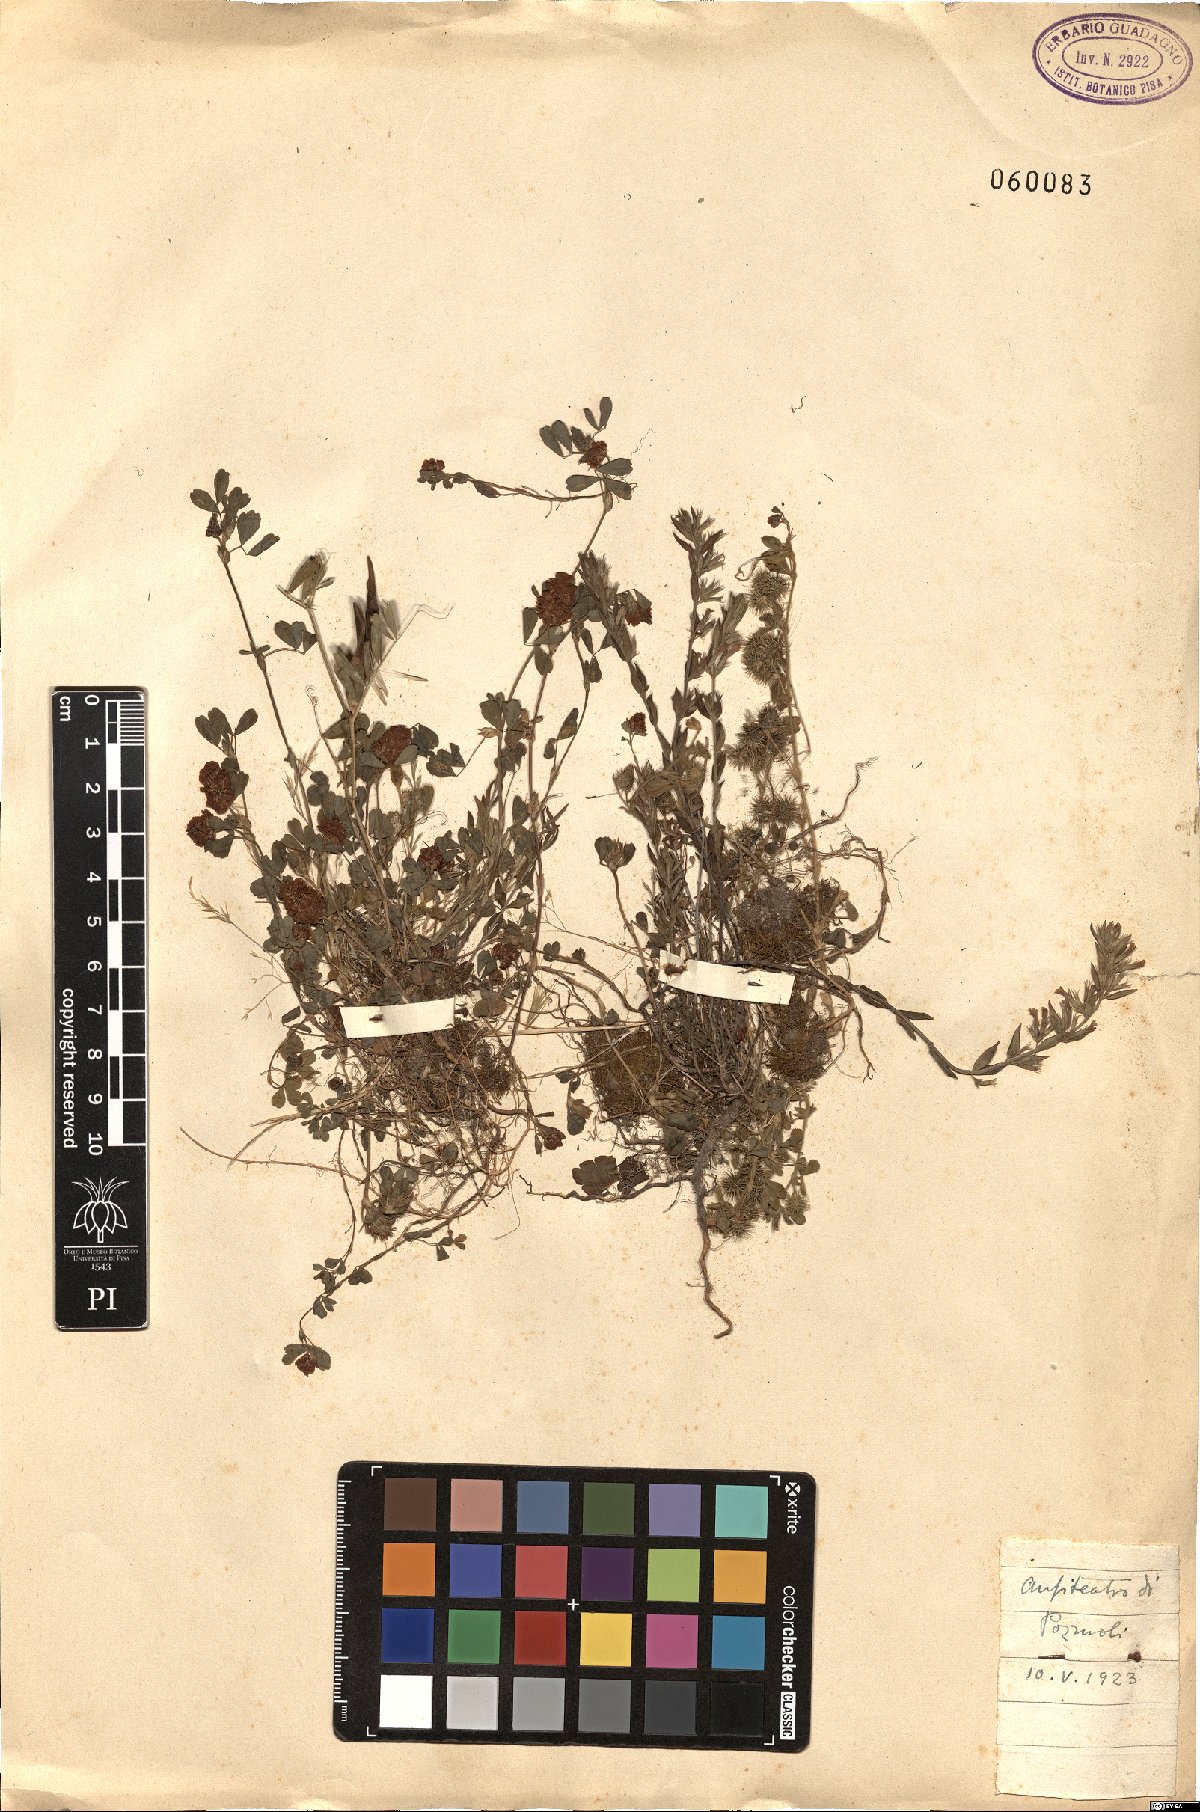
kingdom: Plantae
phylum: Tracheophyta
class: Magnoliopsida
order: Fabales
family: Fabaceae
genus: Trifolium
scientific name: Trifolium campestre
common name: Field clover
